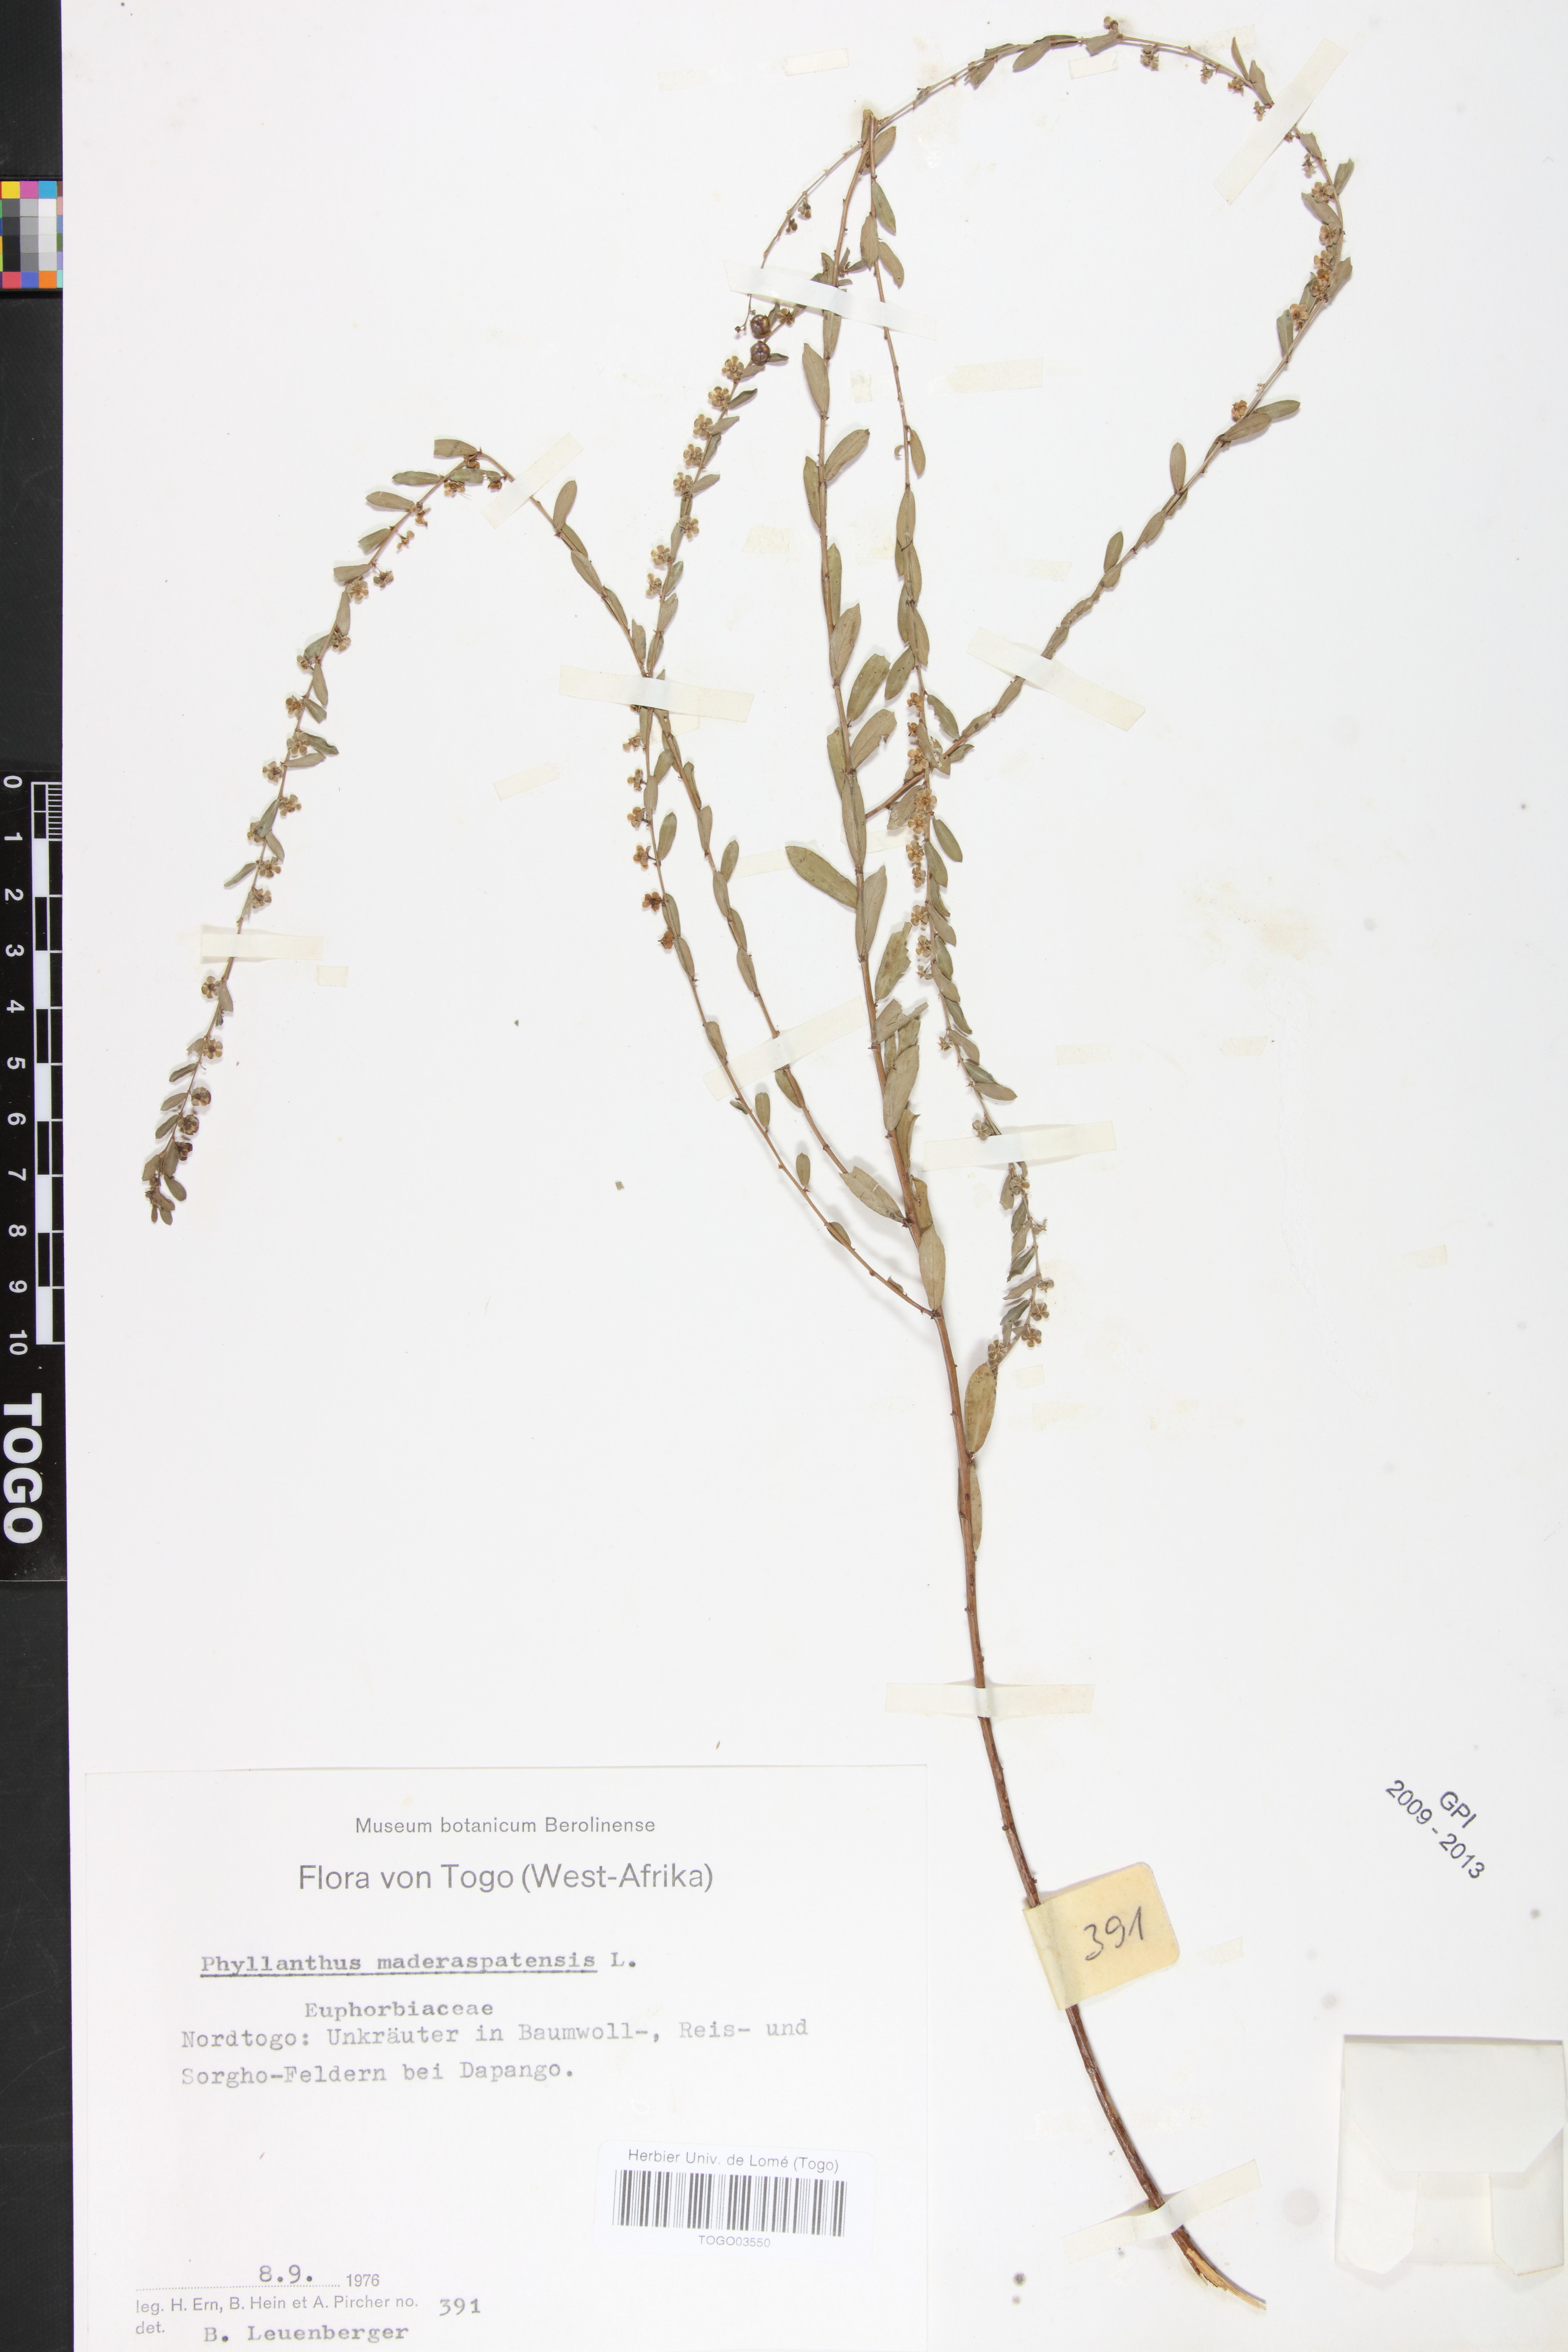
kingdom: Plantae
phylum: Tracheophyta
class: Magnoliopsida
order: Malpighiales
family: Phyllanthaceae
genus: Phyllanthus
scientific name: Phyllanthus maderaspatensis
